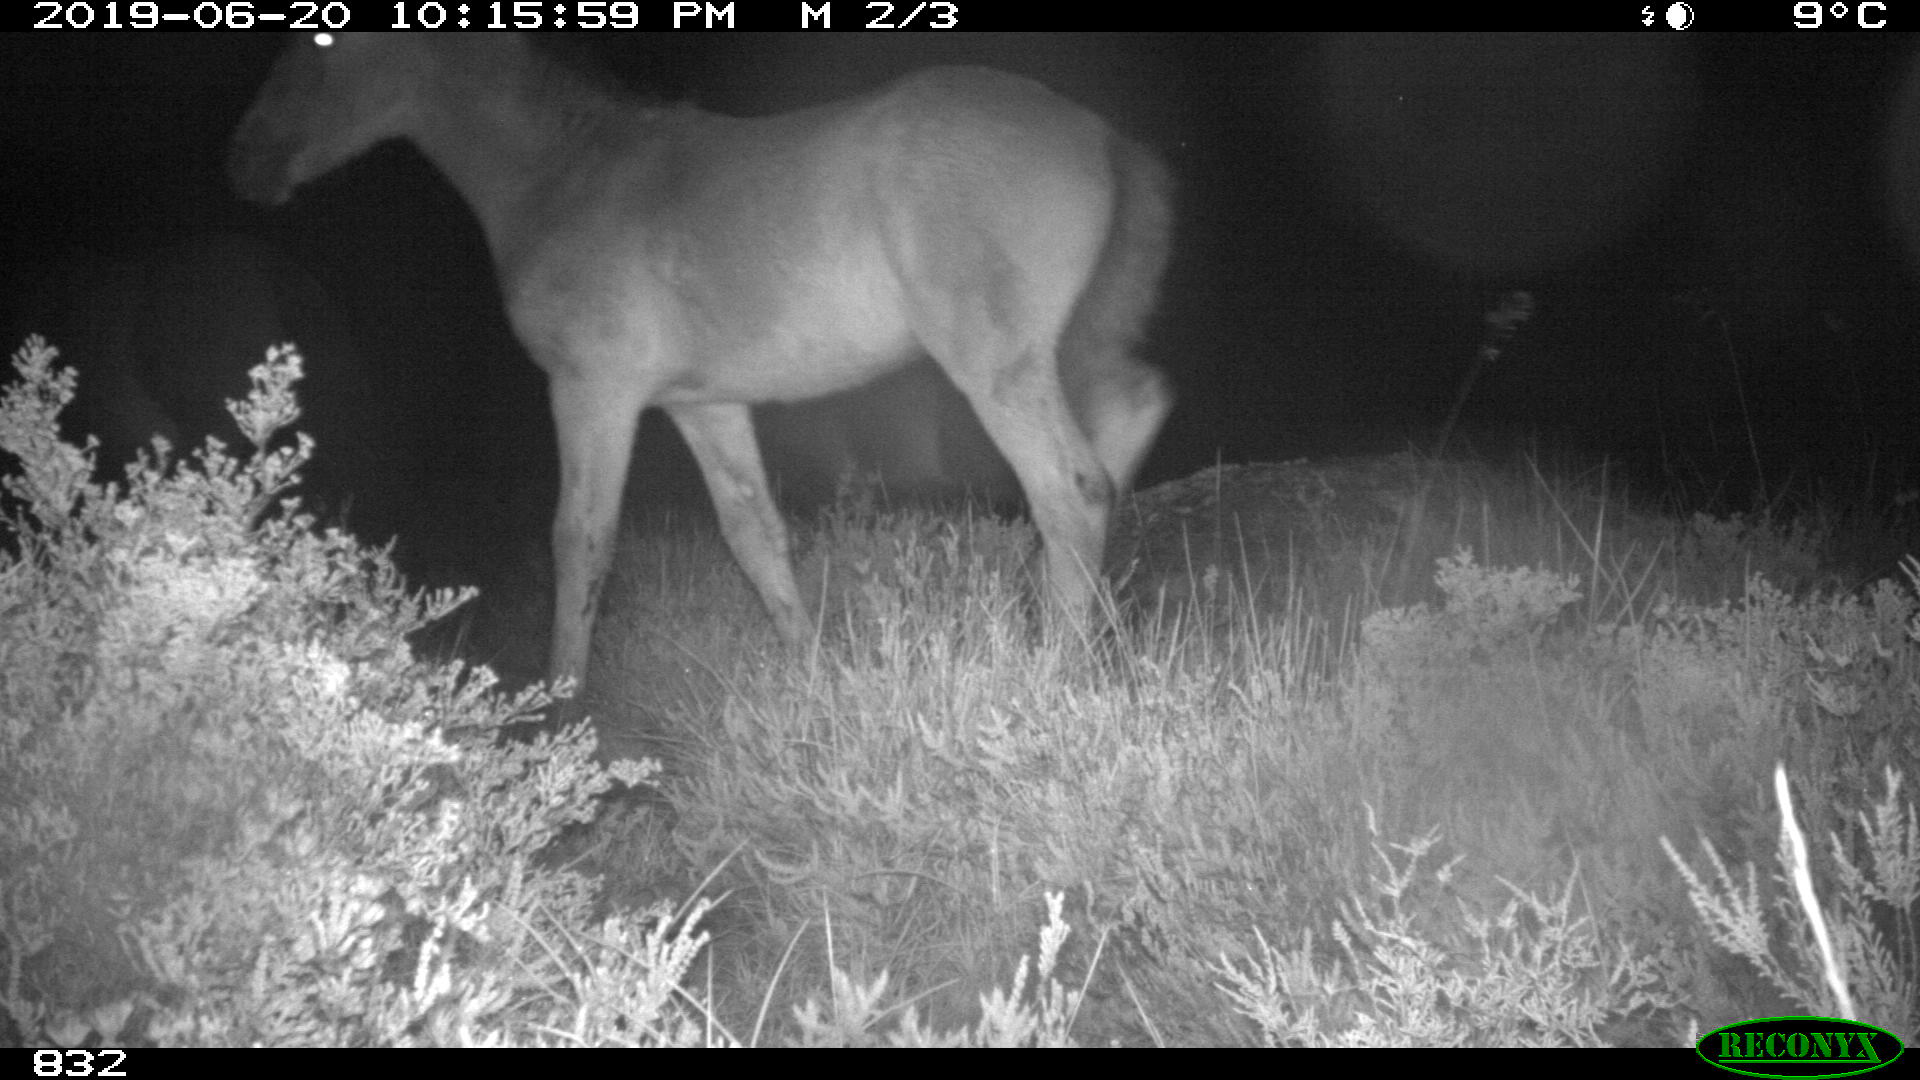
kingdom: Animalia
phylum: Chordata
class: Mammalia
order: Perissodactyla
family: Equidae
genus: Equus
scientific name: Equus caballus
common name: Horse
